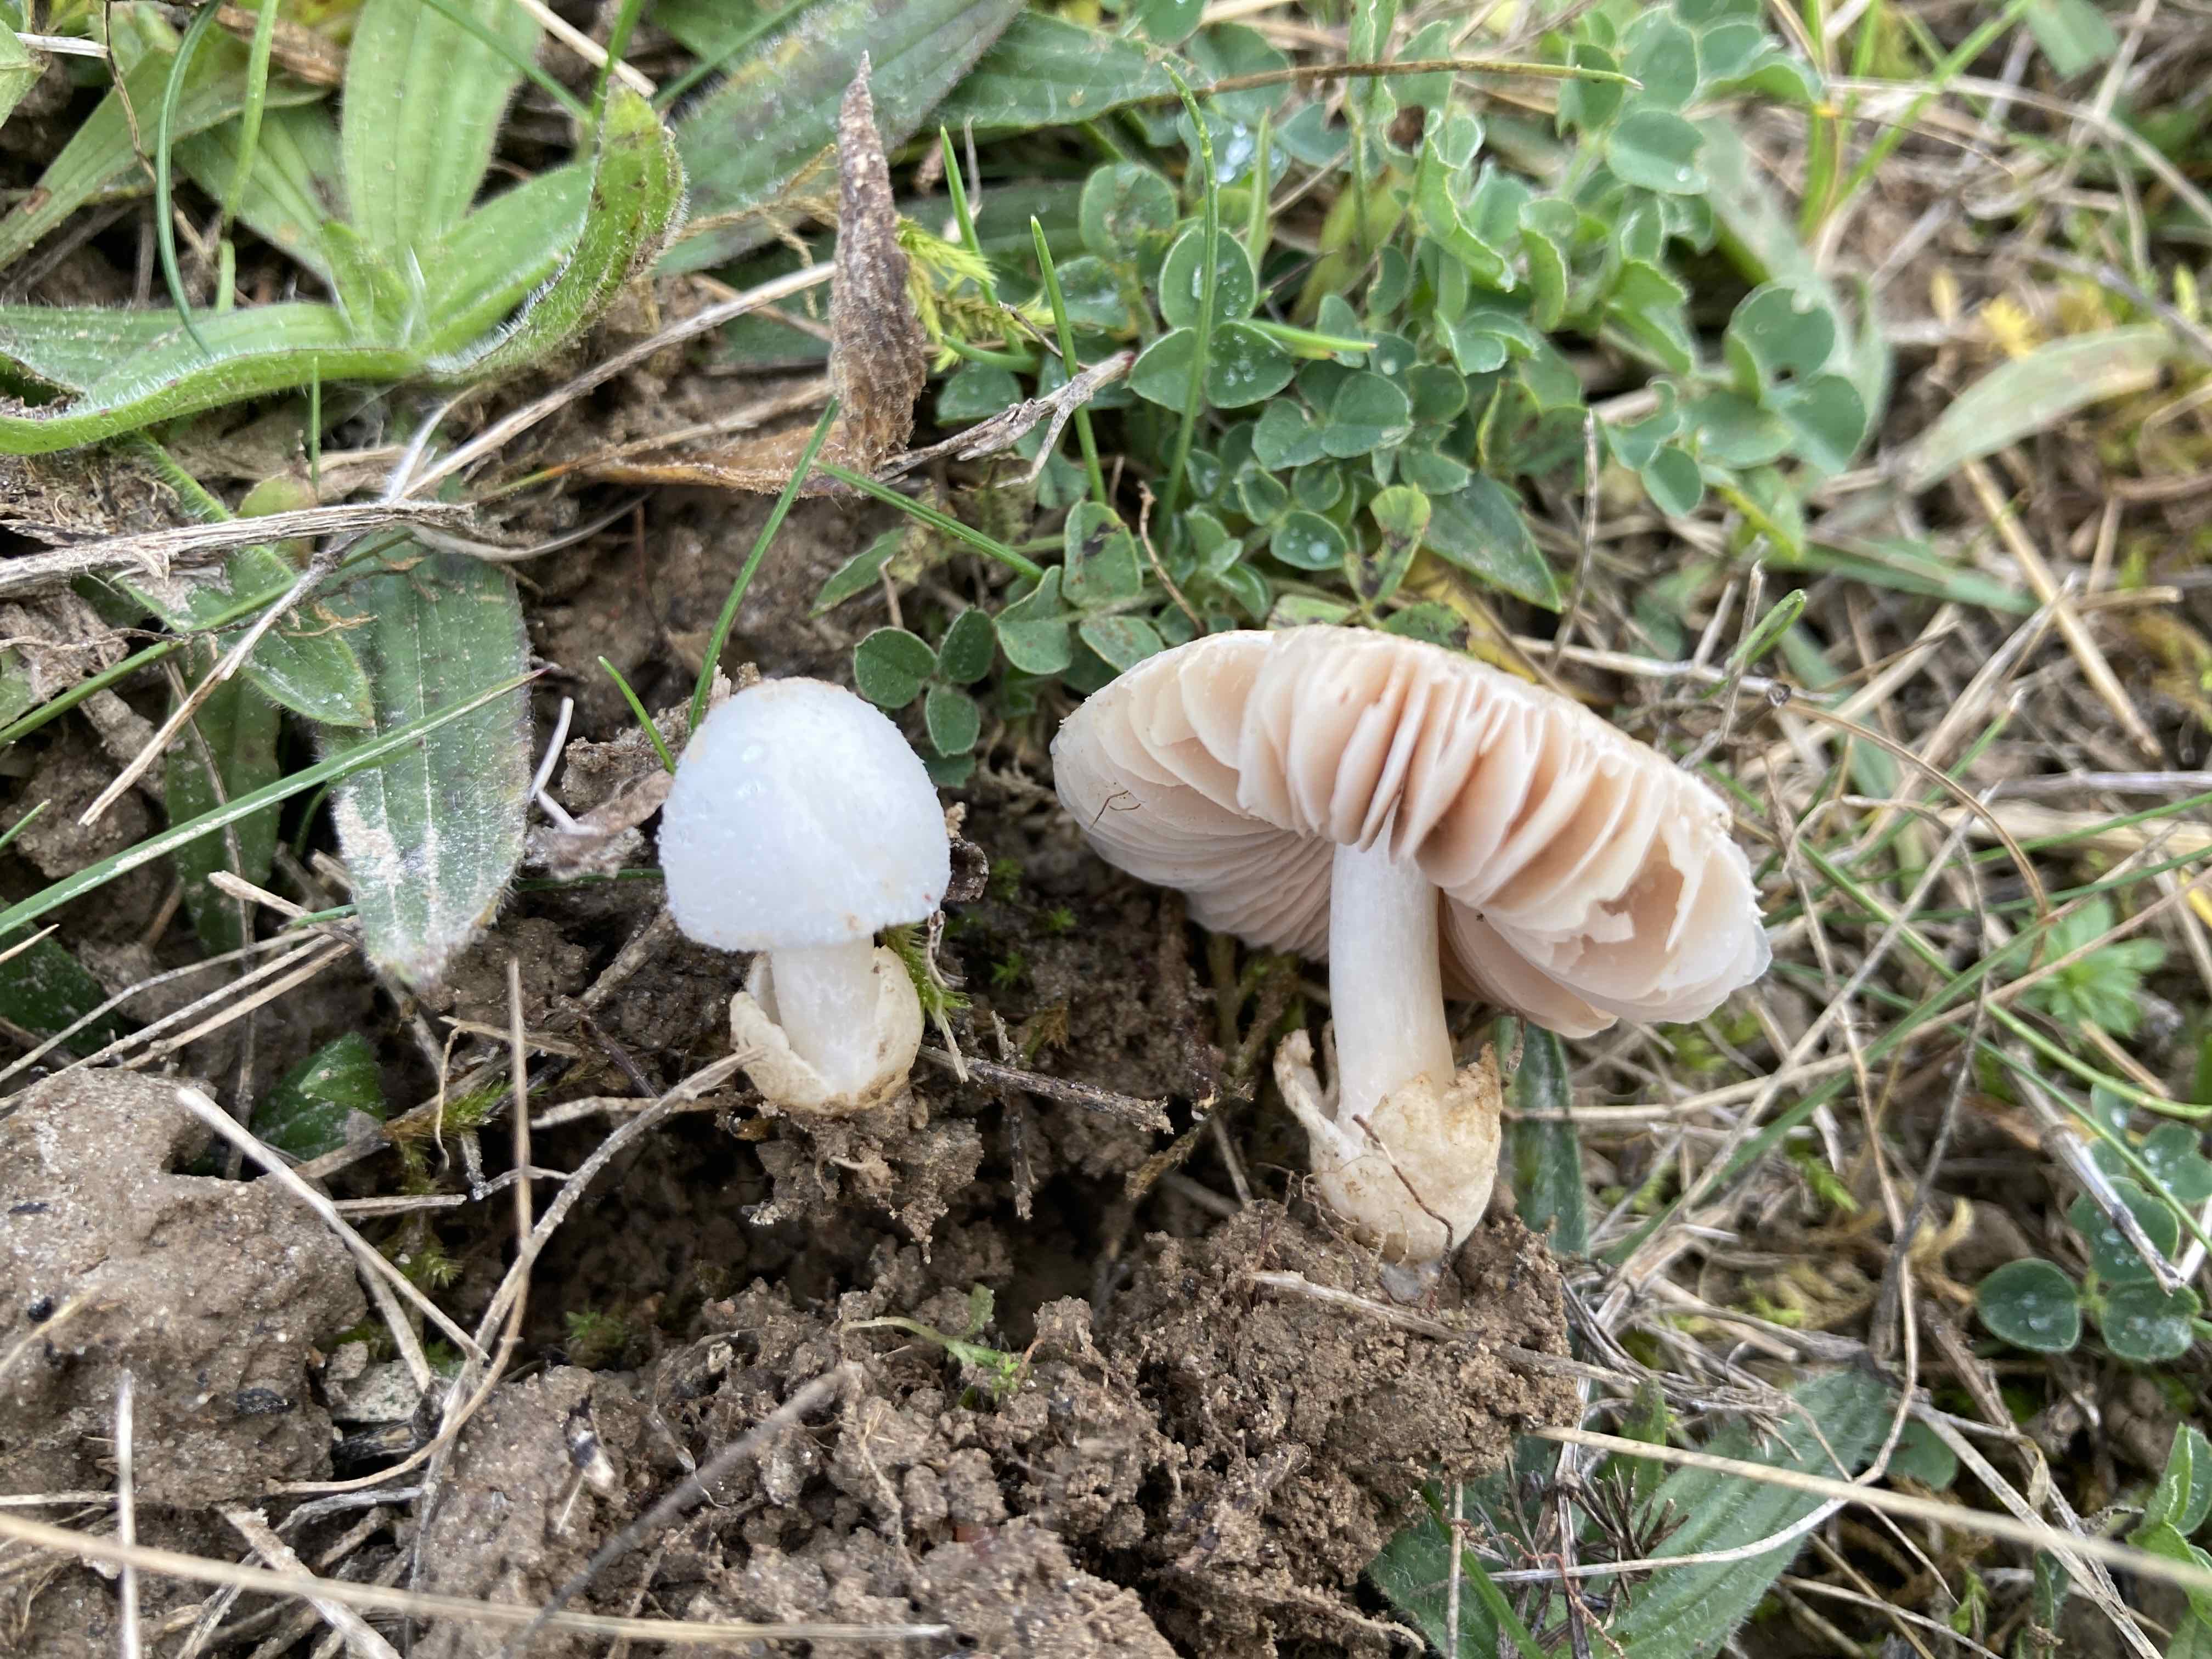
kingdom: Fungi
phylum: Basidiomycota
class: Agaricomycetes
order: Agaricales
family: Pluteaceae
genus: Volvariella
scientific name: Volvariella
